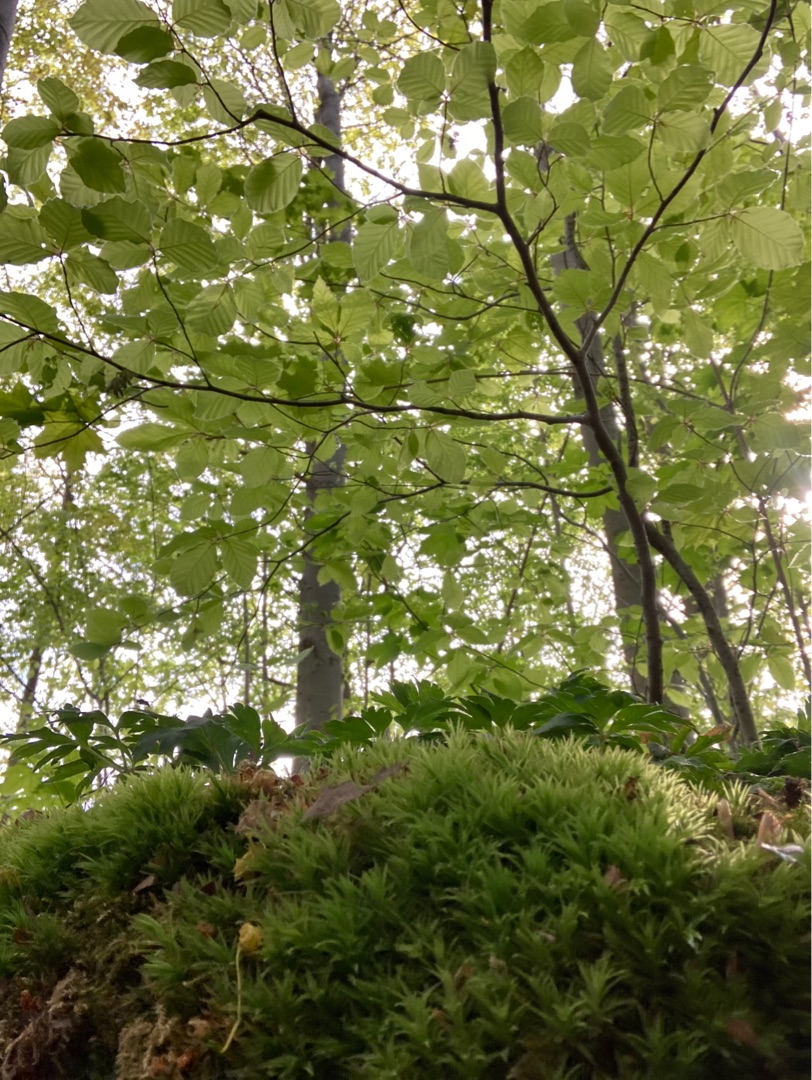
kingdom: Plantae
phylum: Bryophyta
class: Polytrichopsida
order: Polytrichales
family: Polytrichaceae
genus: Atrichum
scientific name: Atrichum undulatum
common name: Bølget katrinemos
